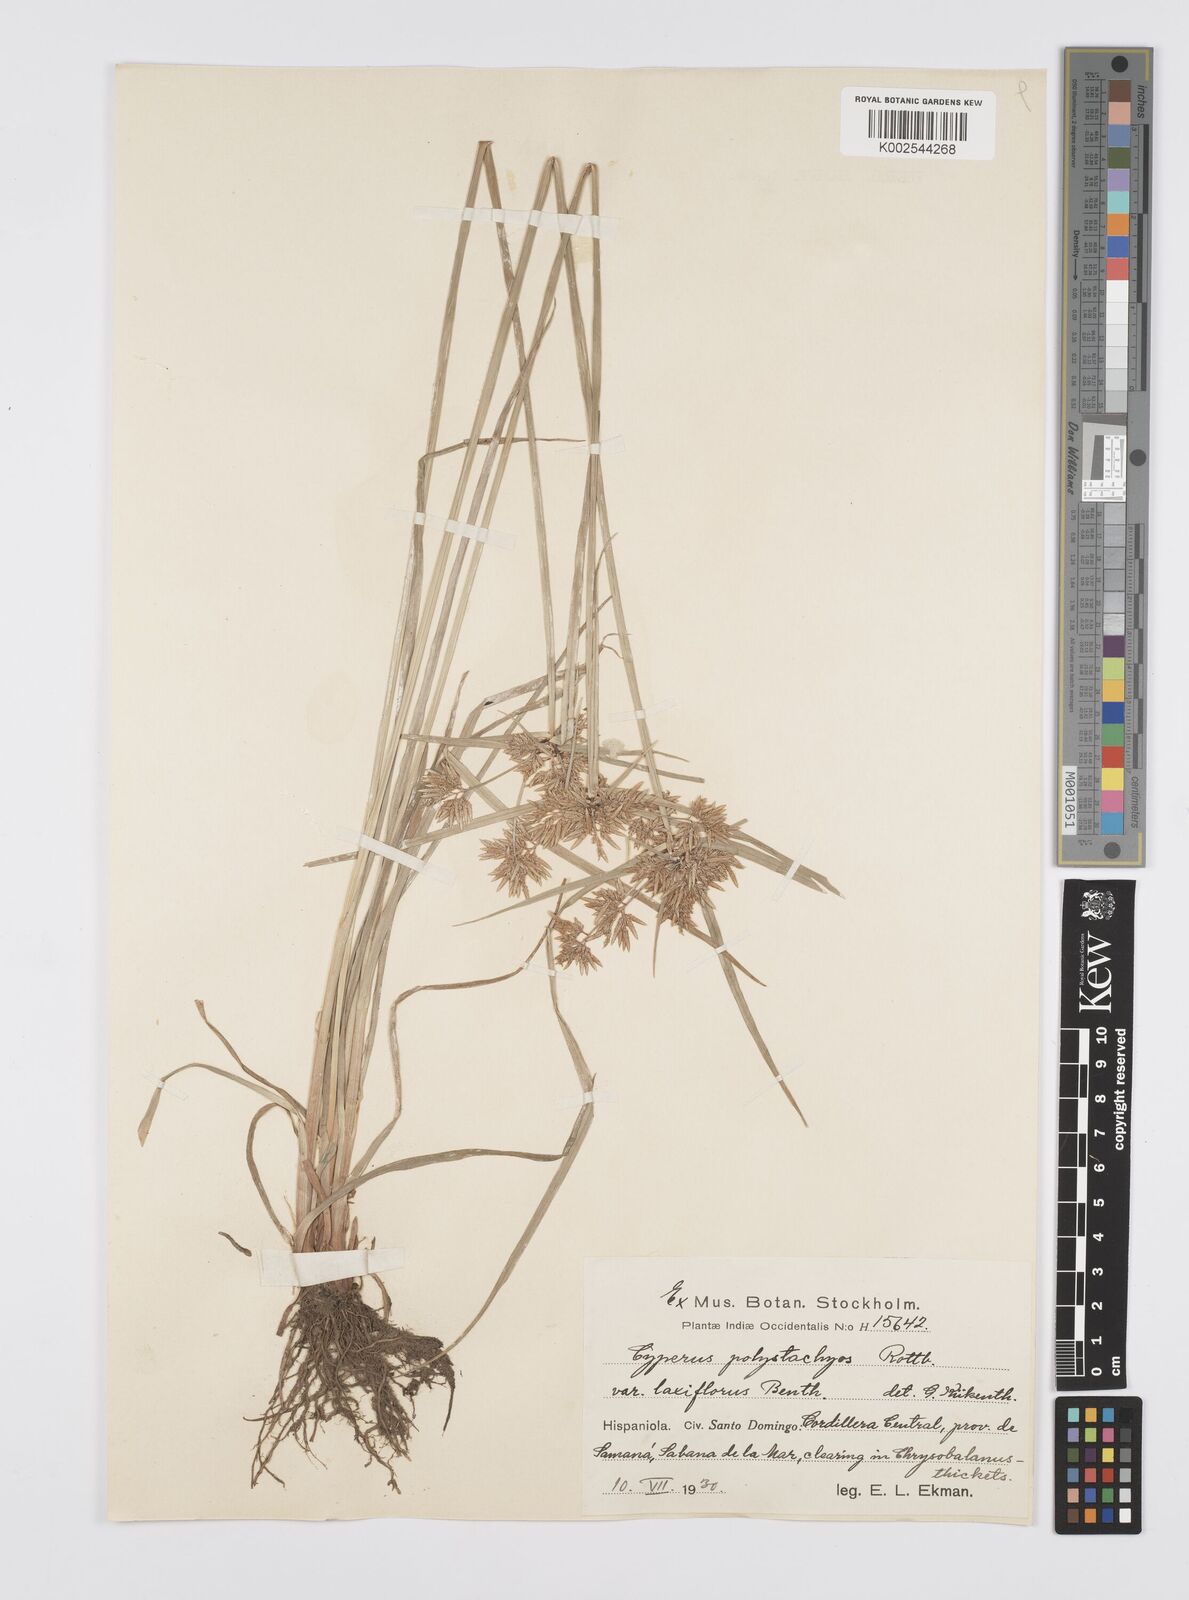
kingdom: Plantae
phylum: Tracheophyta
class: Liliopsida
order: Poales
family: Cyperaceae
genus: Cyperus
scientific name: Cyperus polystachyos
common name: Bunchy flat sedge
